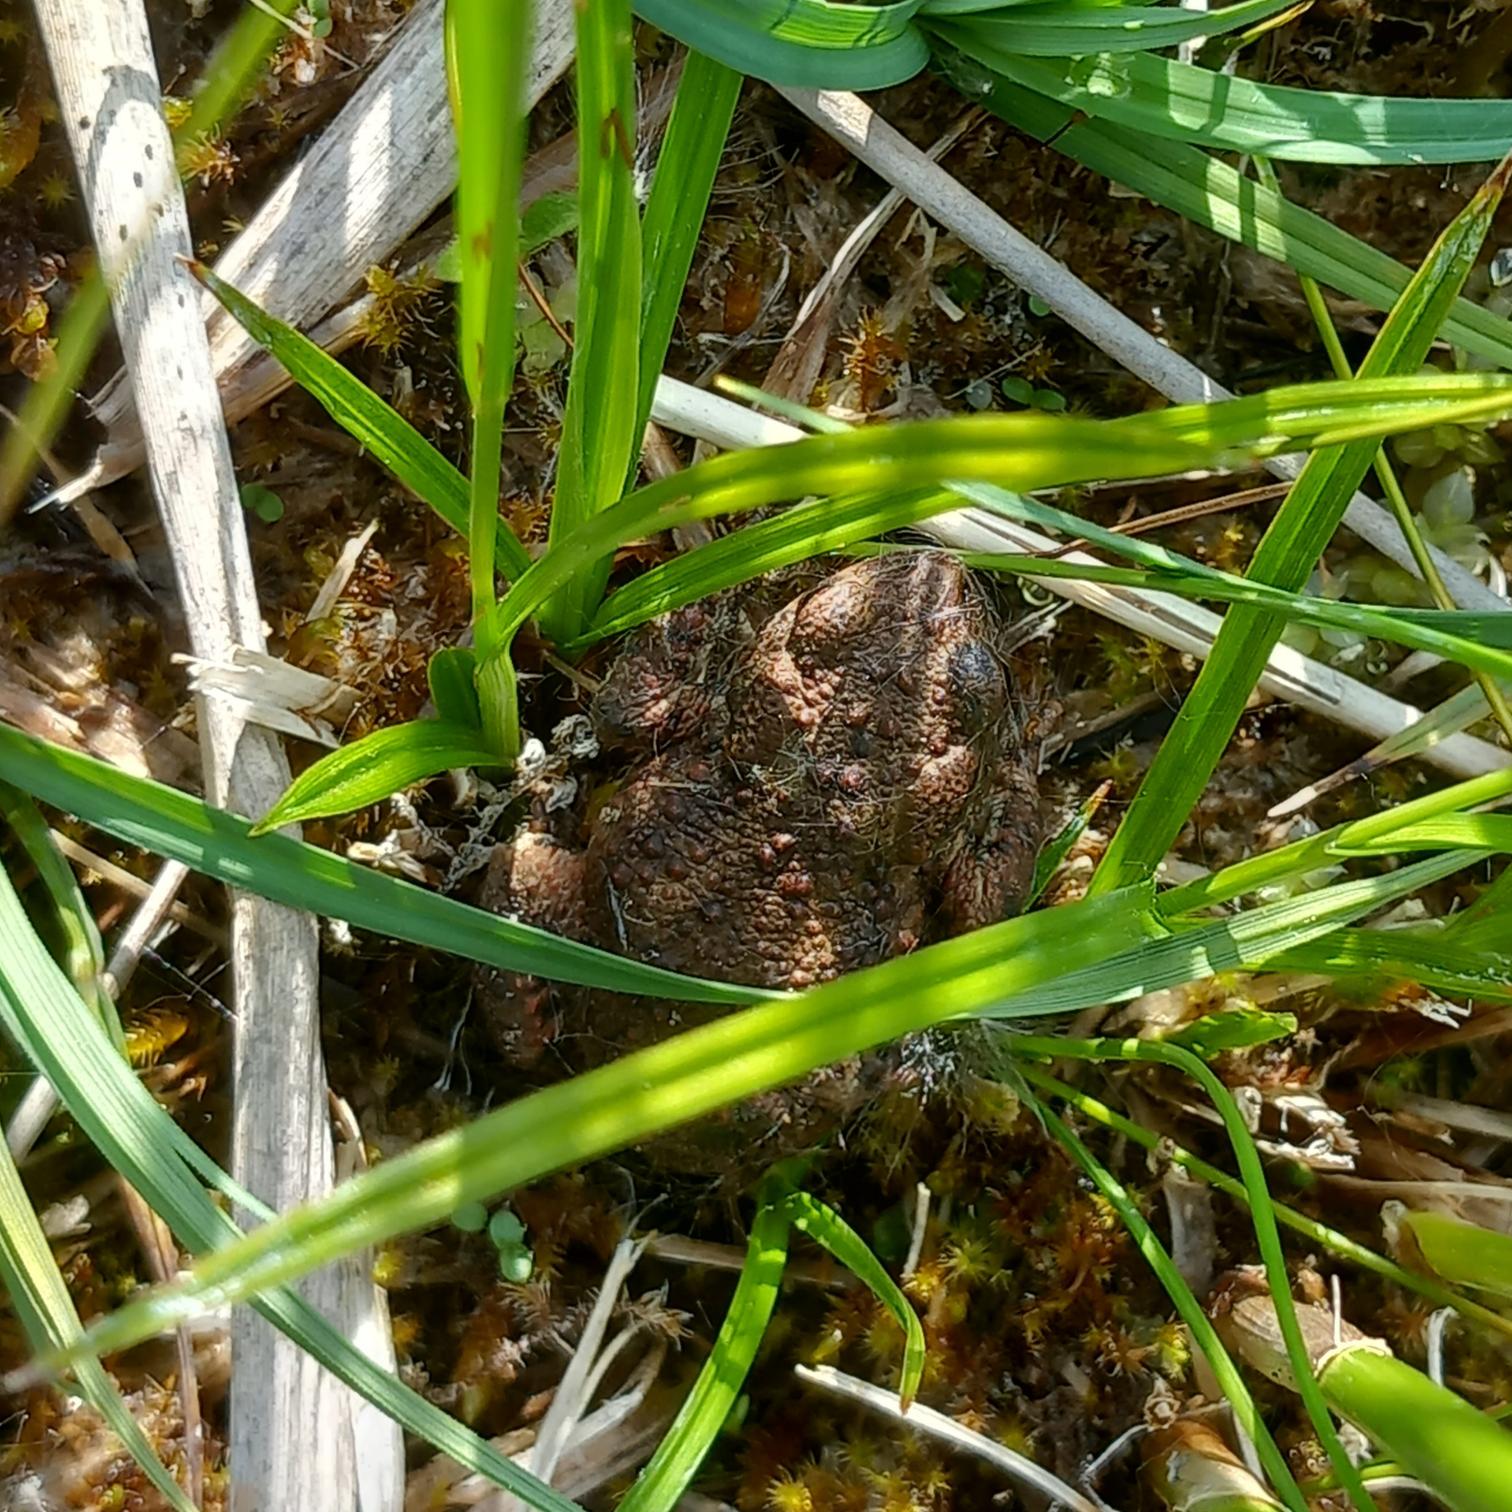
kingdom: Animalia
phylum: Chordata
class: Amphibia
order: Anura
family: Bufonidae
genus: Bufo
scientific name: Bufo bufo
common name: Skrubtudse
